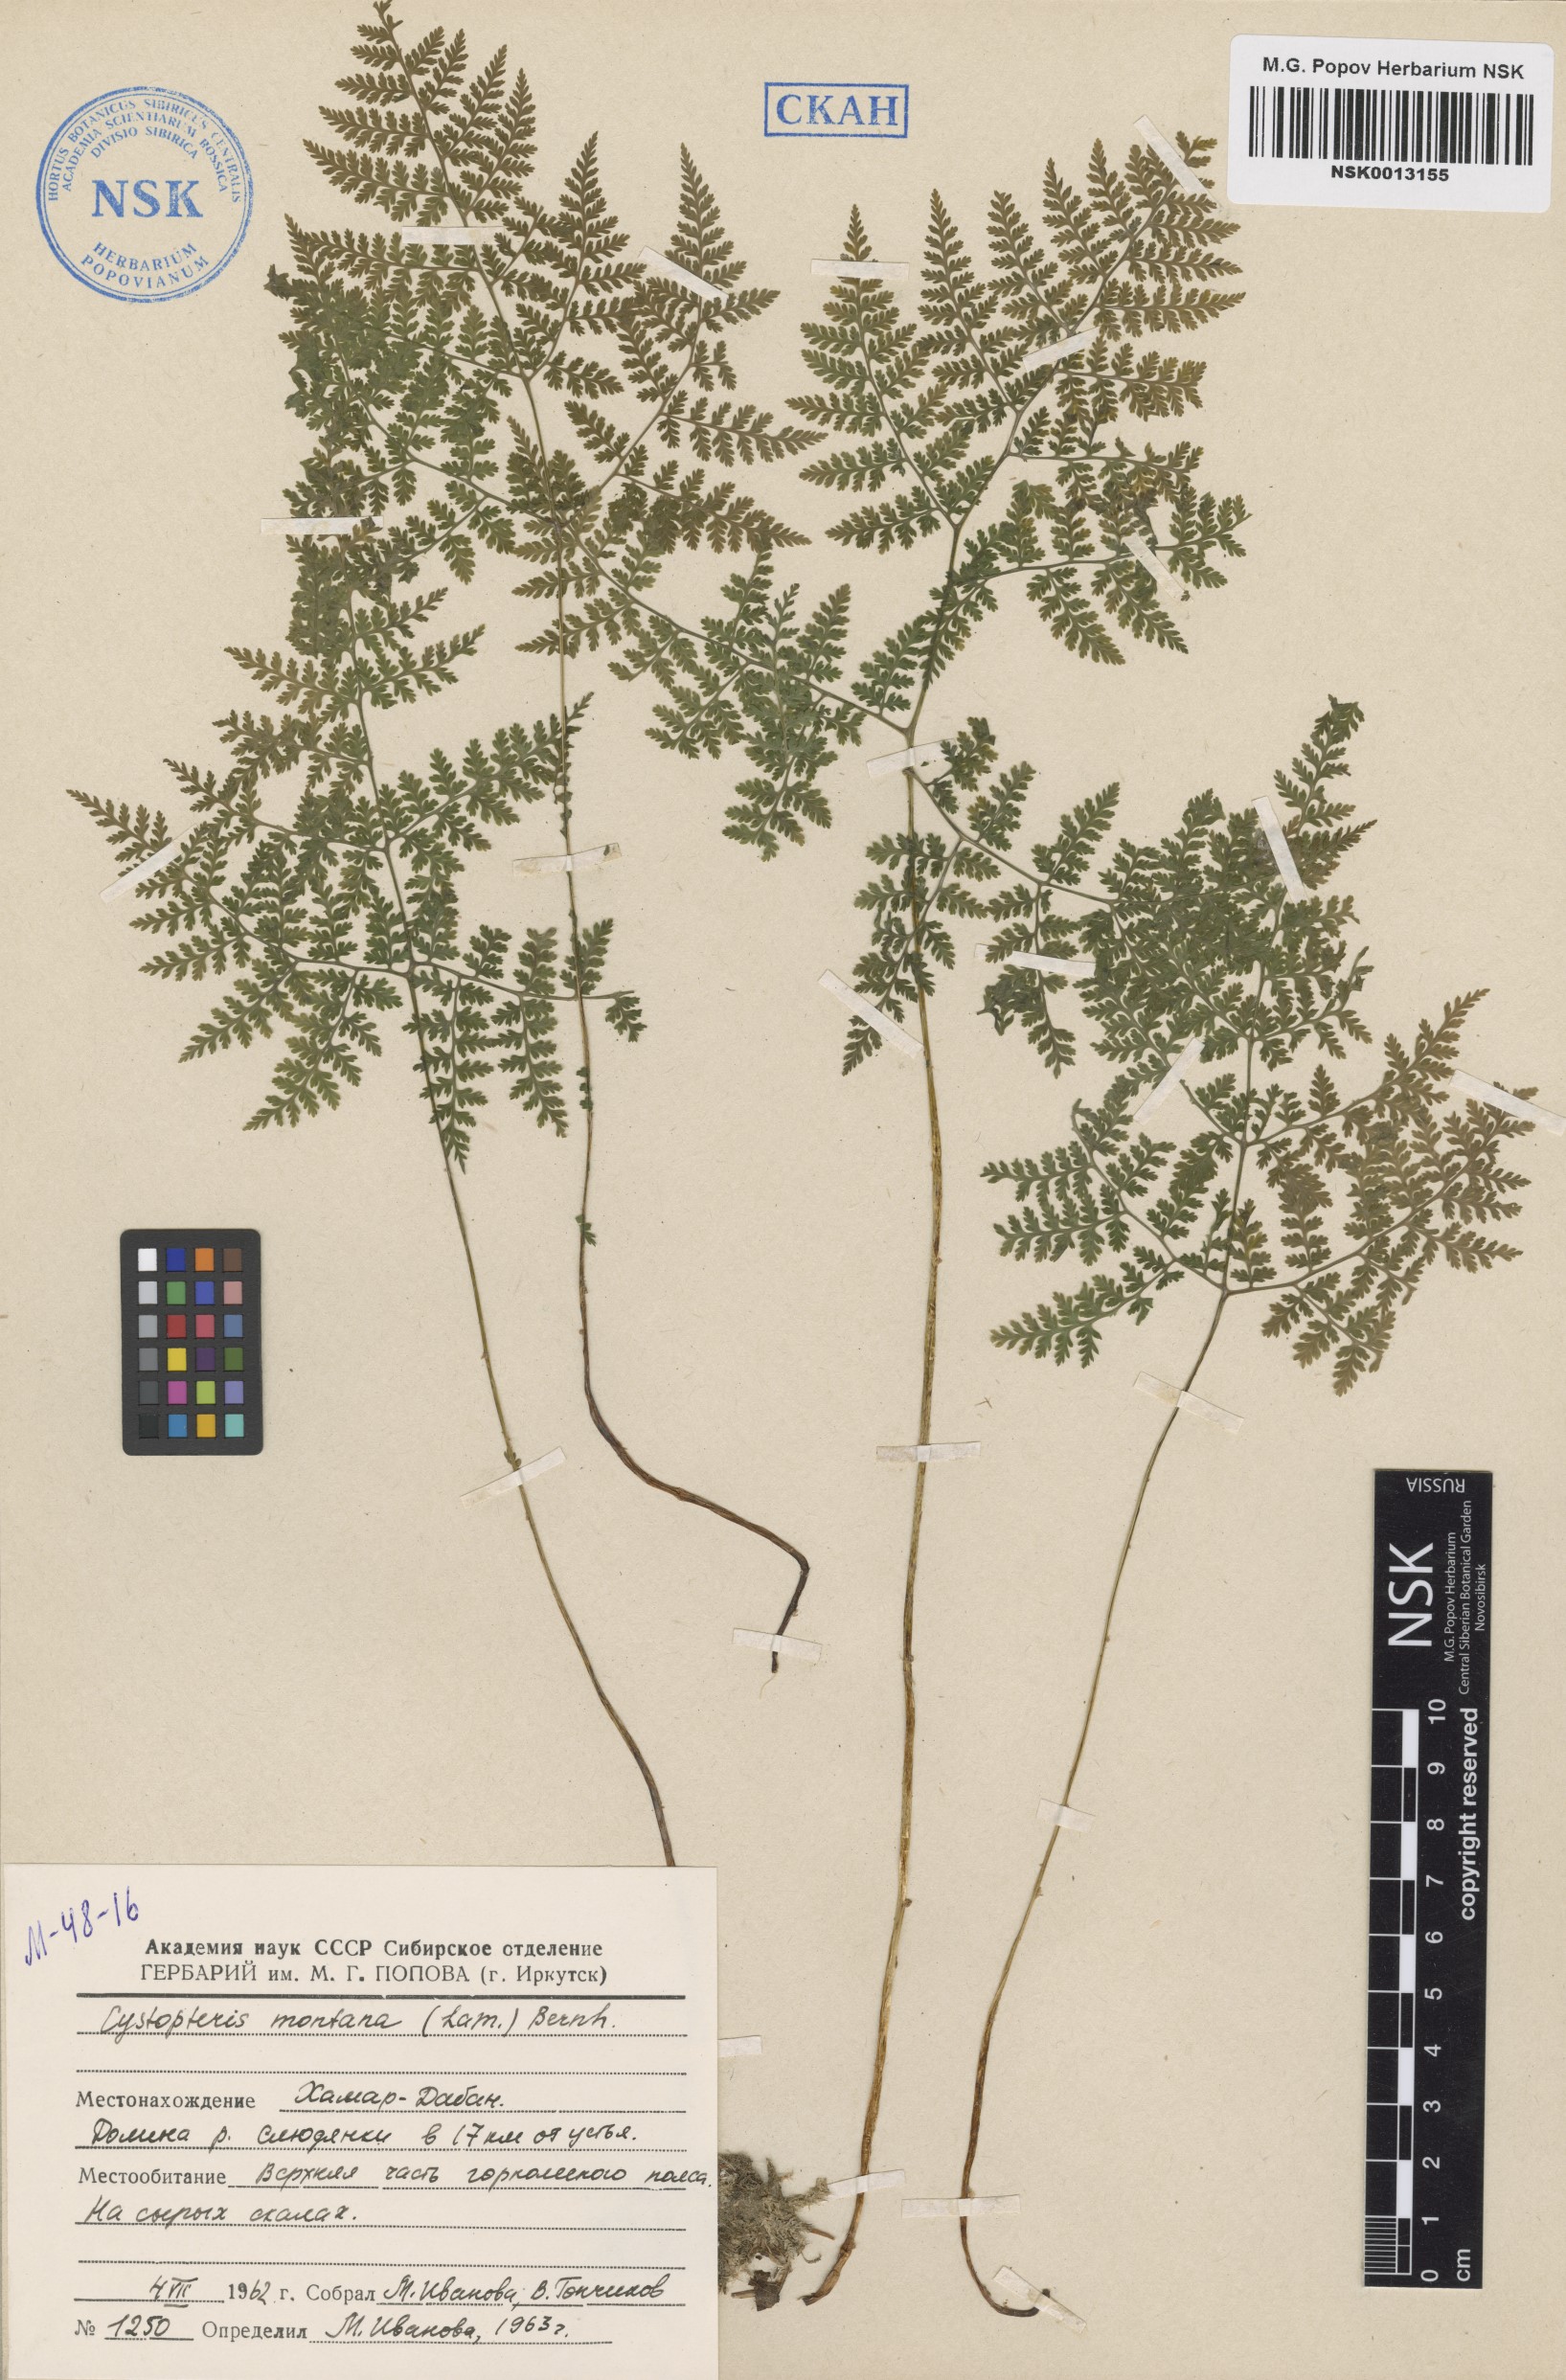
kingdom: Plantae
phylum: Tracheophyta
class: Polypodiopsida
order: Polypodiales
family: Cystopteridaceae
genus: Cystopteris
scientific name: Cystopteris montana
